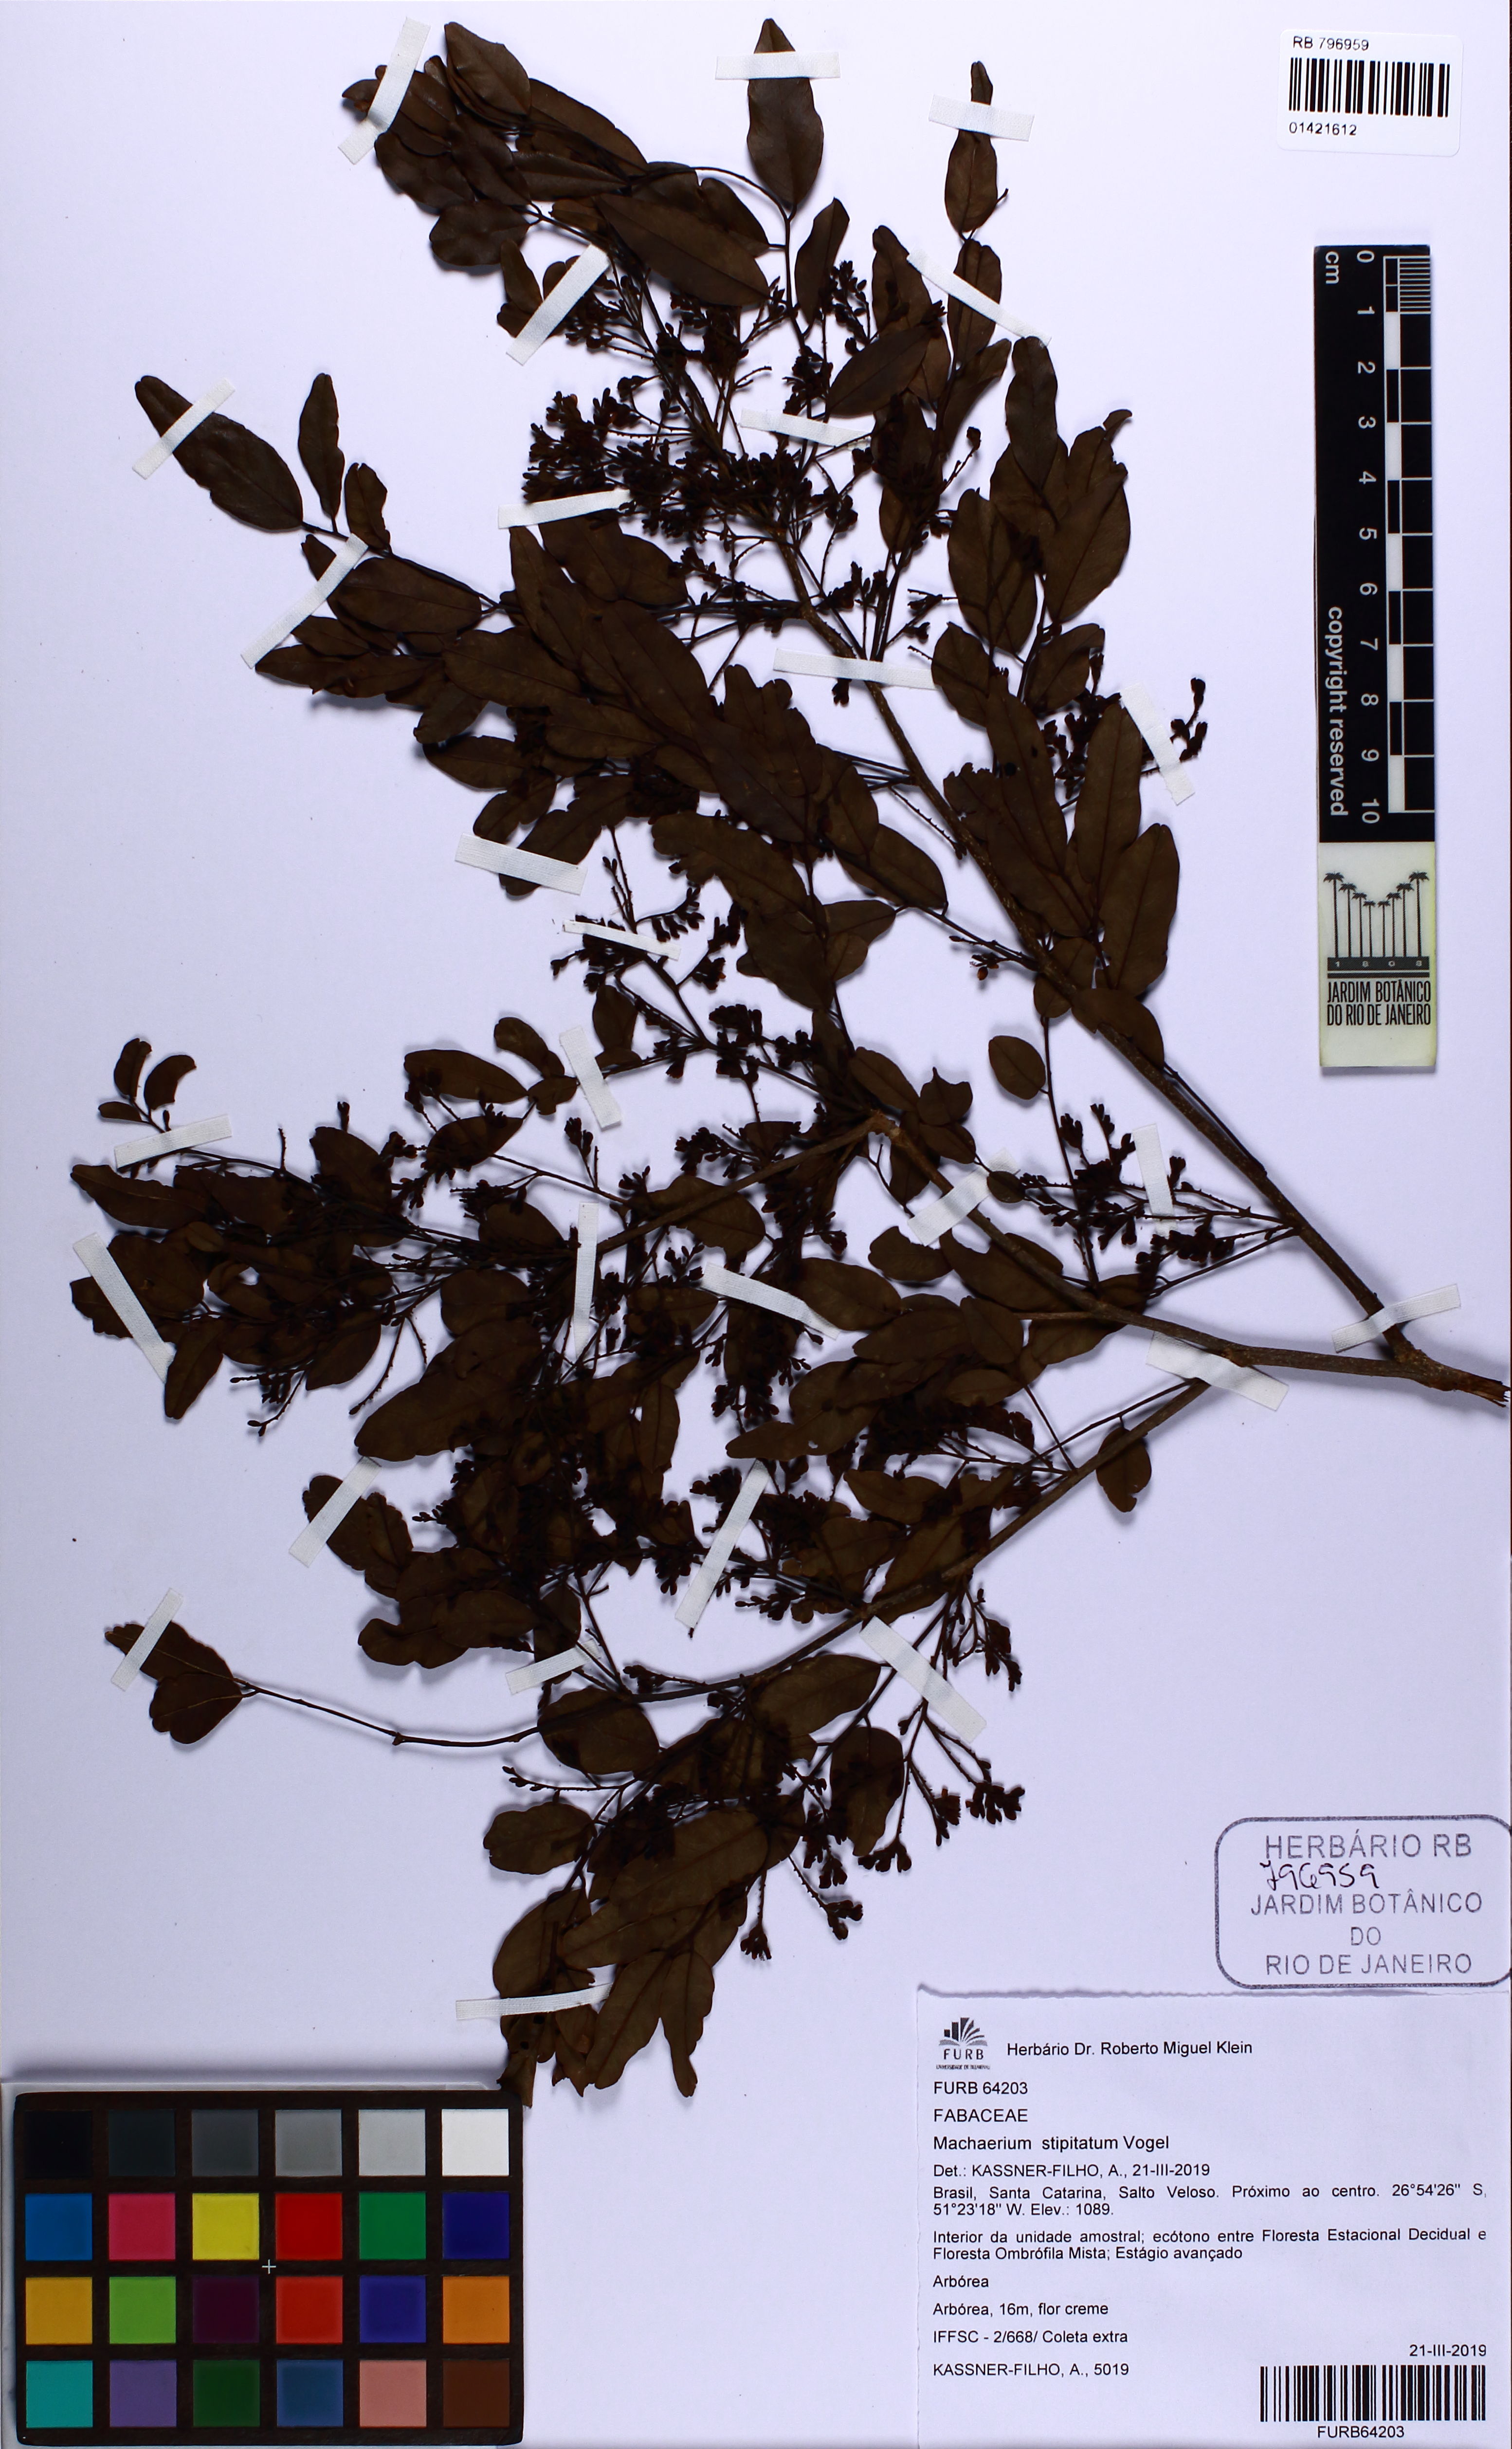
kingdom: Plantae
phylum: Tracheophyta
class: Magnoliopsida
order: Fabales
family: Fabaceae
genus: Machaerium
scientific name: Machaerium stipitatum
